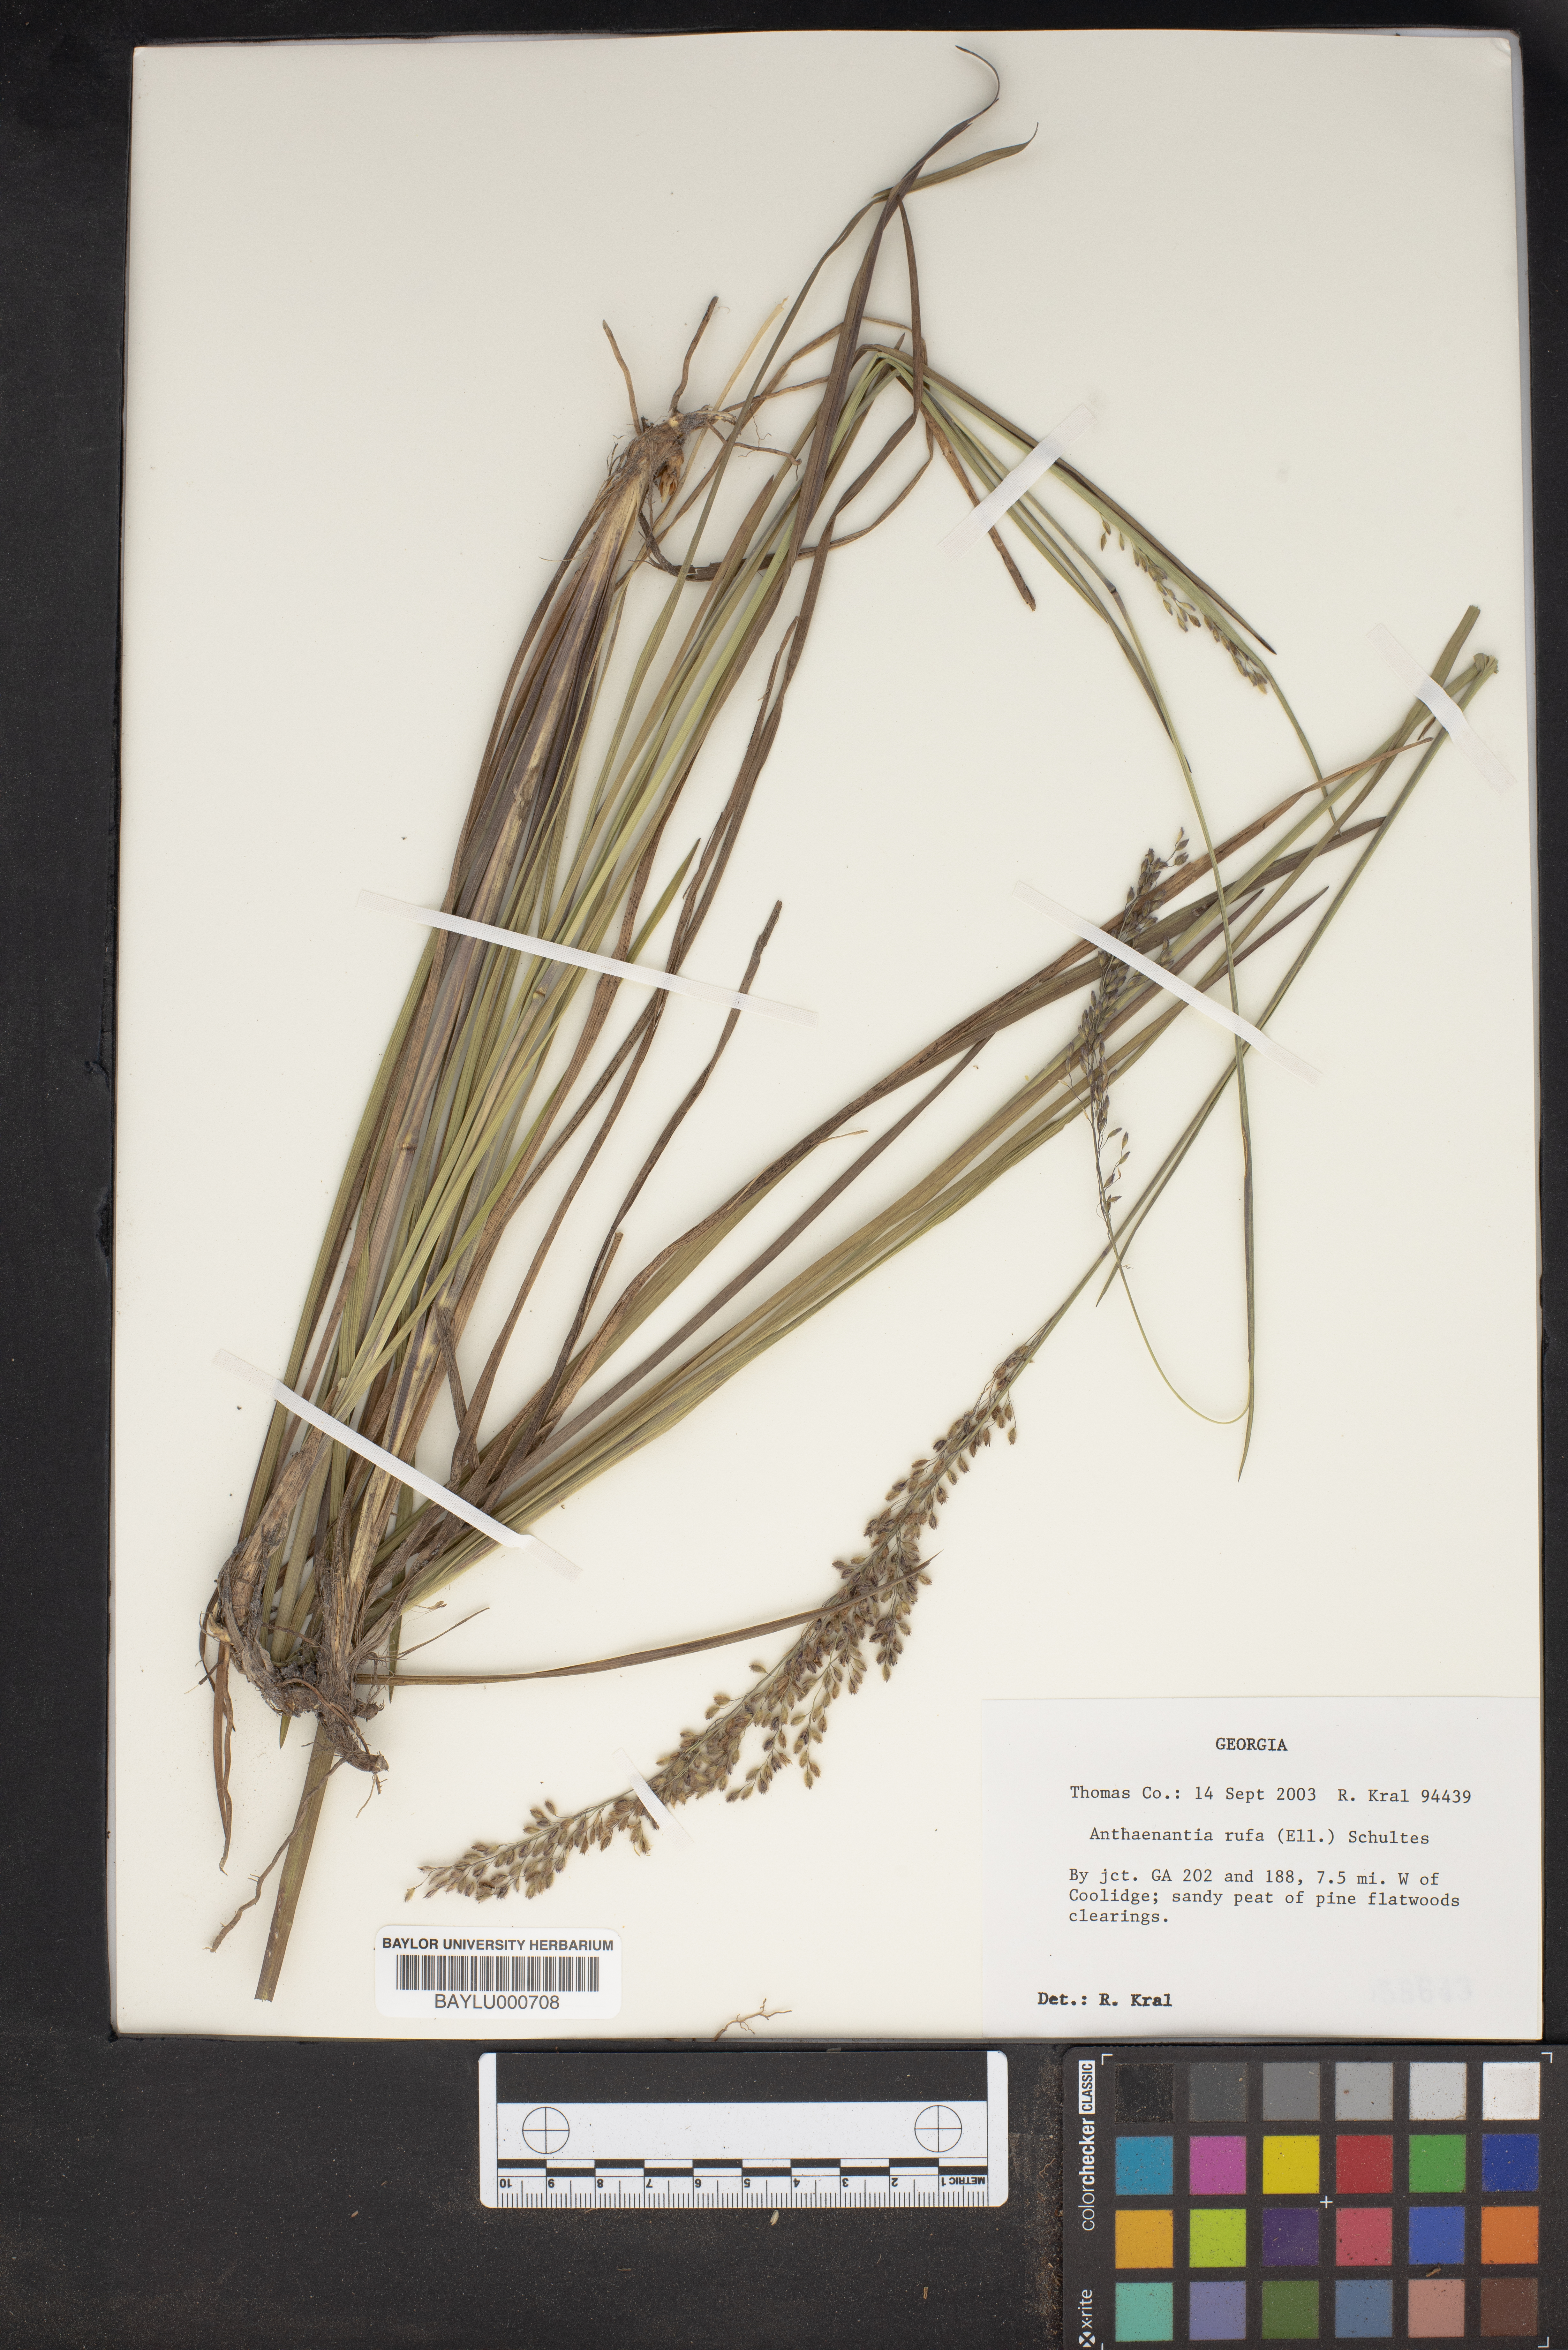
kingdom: Plantae
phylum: Tracheophyta
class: Liliopsida
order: Poales
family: Poaceae
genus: Anthenantia
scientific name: Anthenantia rufa
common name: Purple silkyscale
